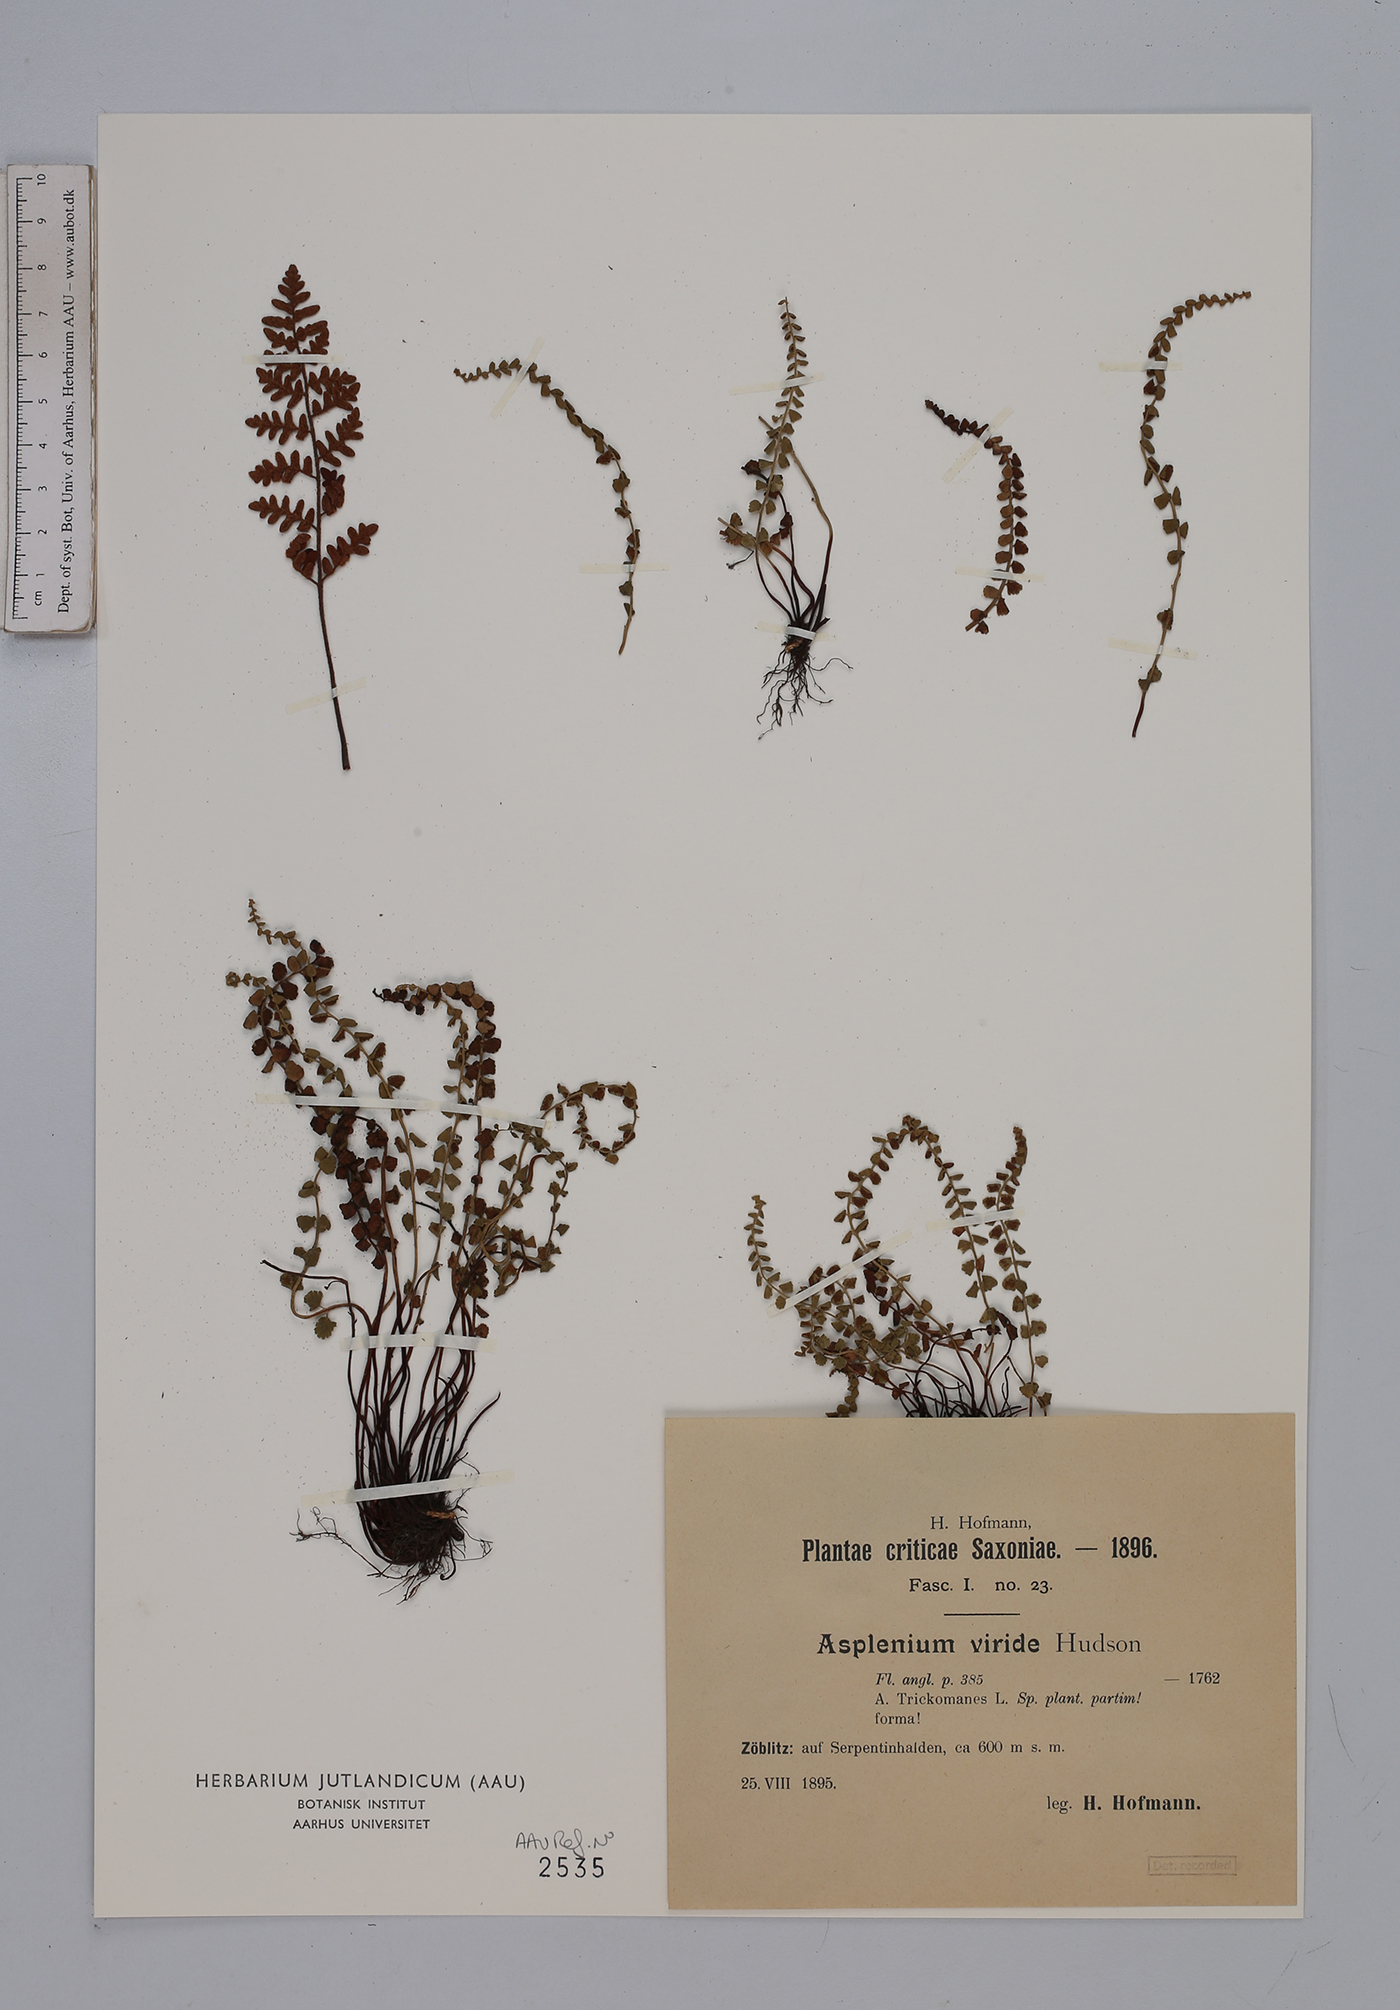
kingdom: Plantae
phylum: Tracheophyta
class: Polypodiopsida
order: Polypodiales
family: Aspleniaceae
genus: Asplenium
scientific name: Asplenium viride
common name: Green spleenwort
